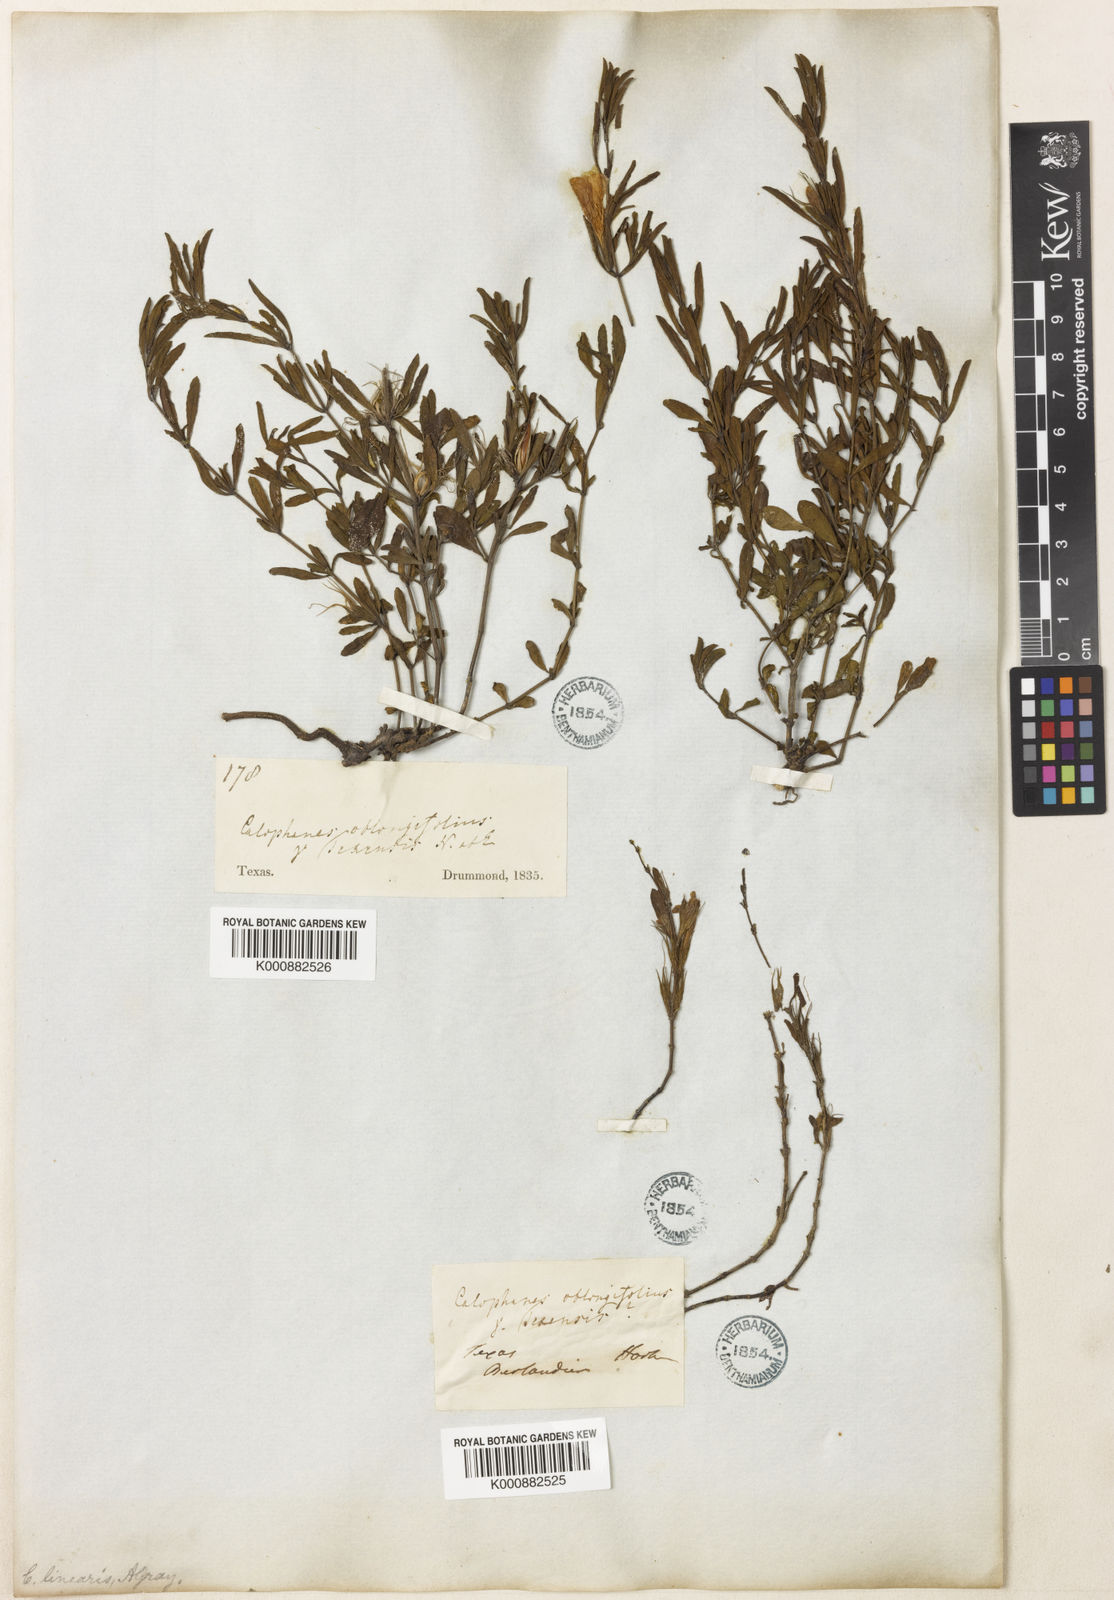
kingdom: Plantae
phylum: Tracheophyta
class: Magnoliopsida
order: Lamiales
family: Acanthaceae
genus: Dyschoriste
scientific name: Dyschoriste linearis
